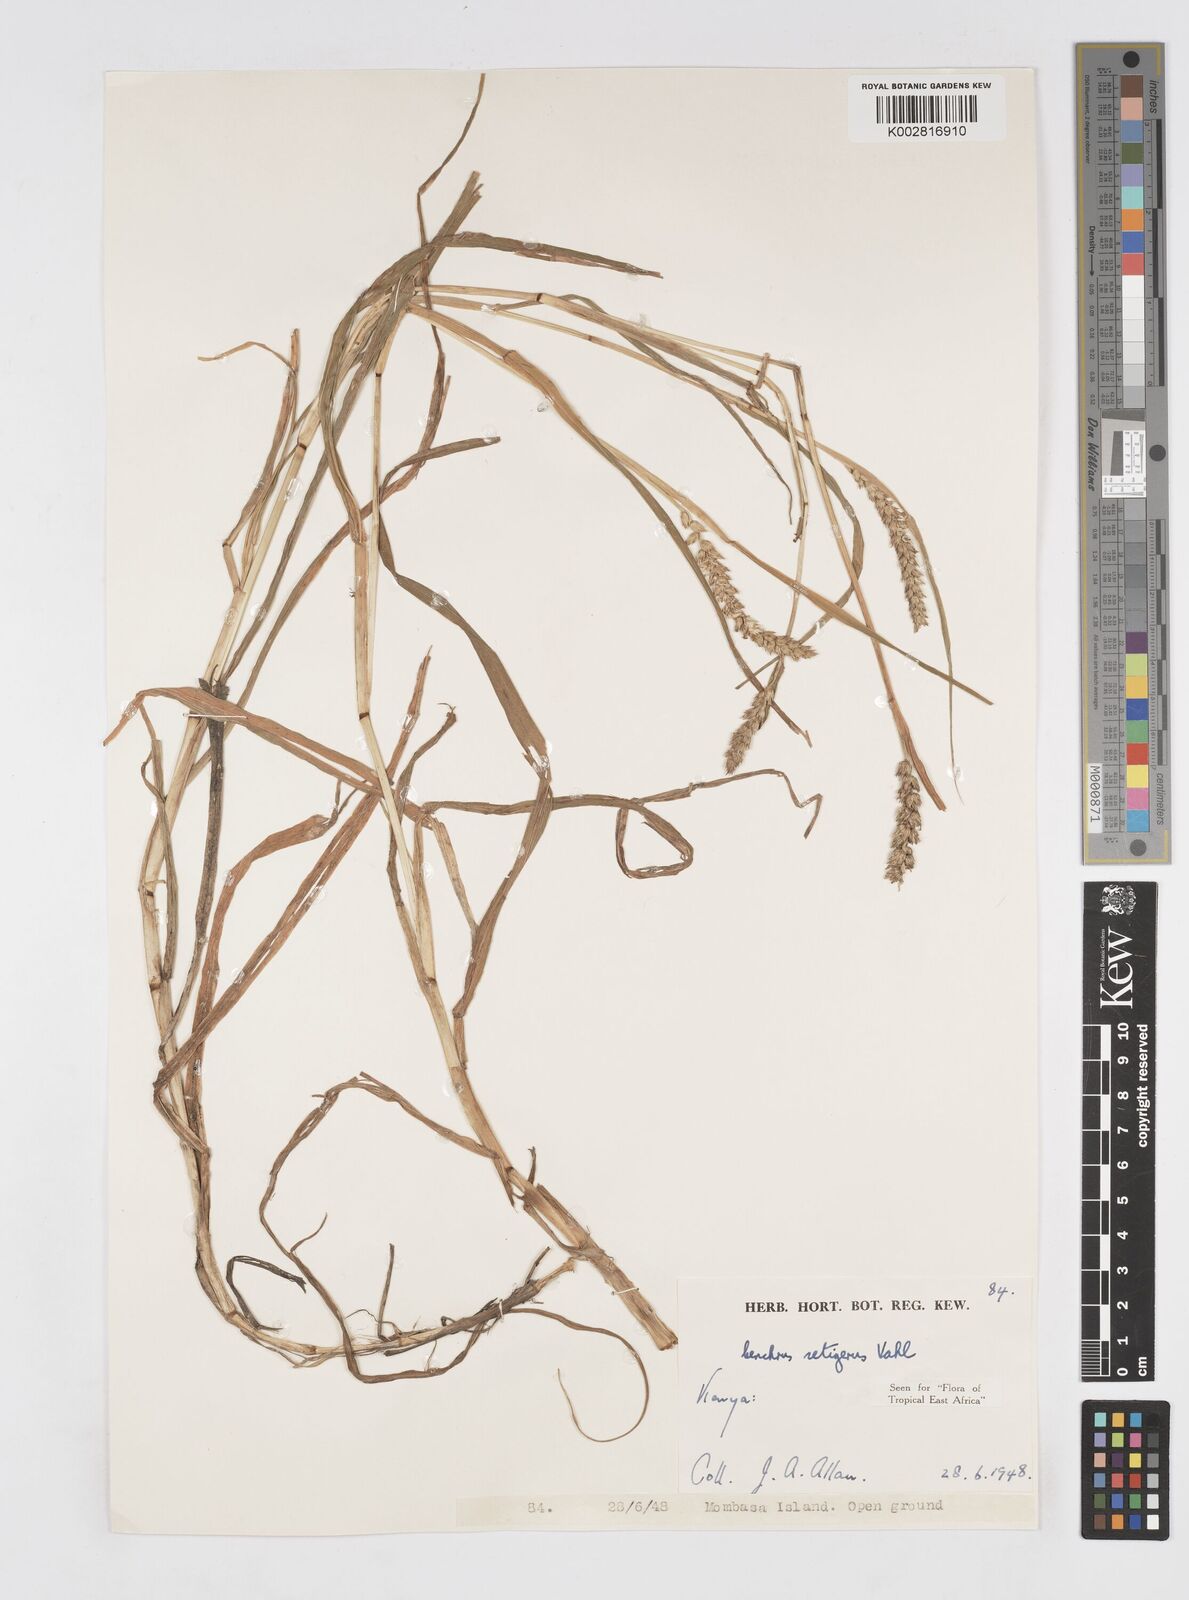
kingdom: Plantae
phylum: Tracheophyta
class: Liliopsida
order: Poales
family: Poaceae
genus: Cenchrus
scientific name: Cenchrus setigerus
